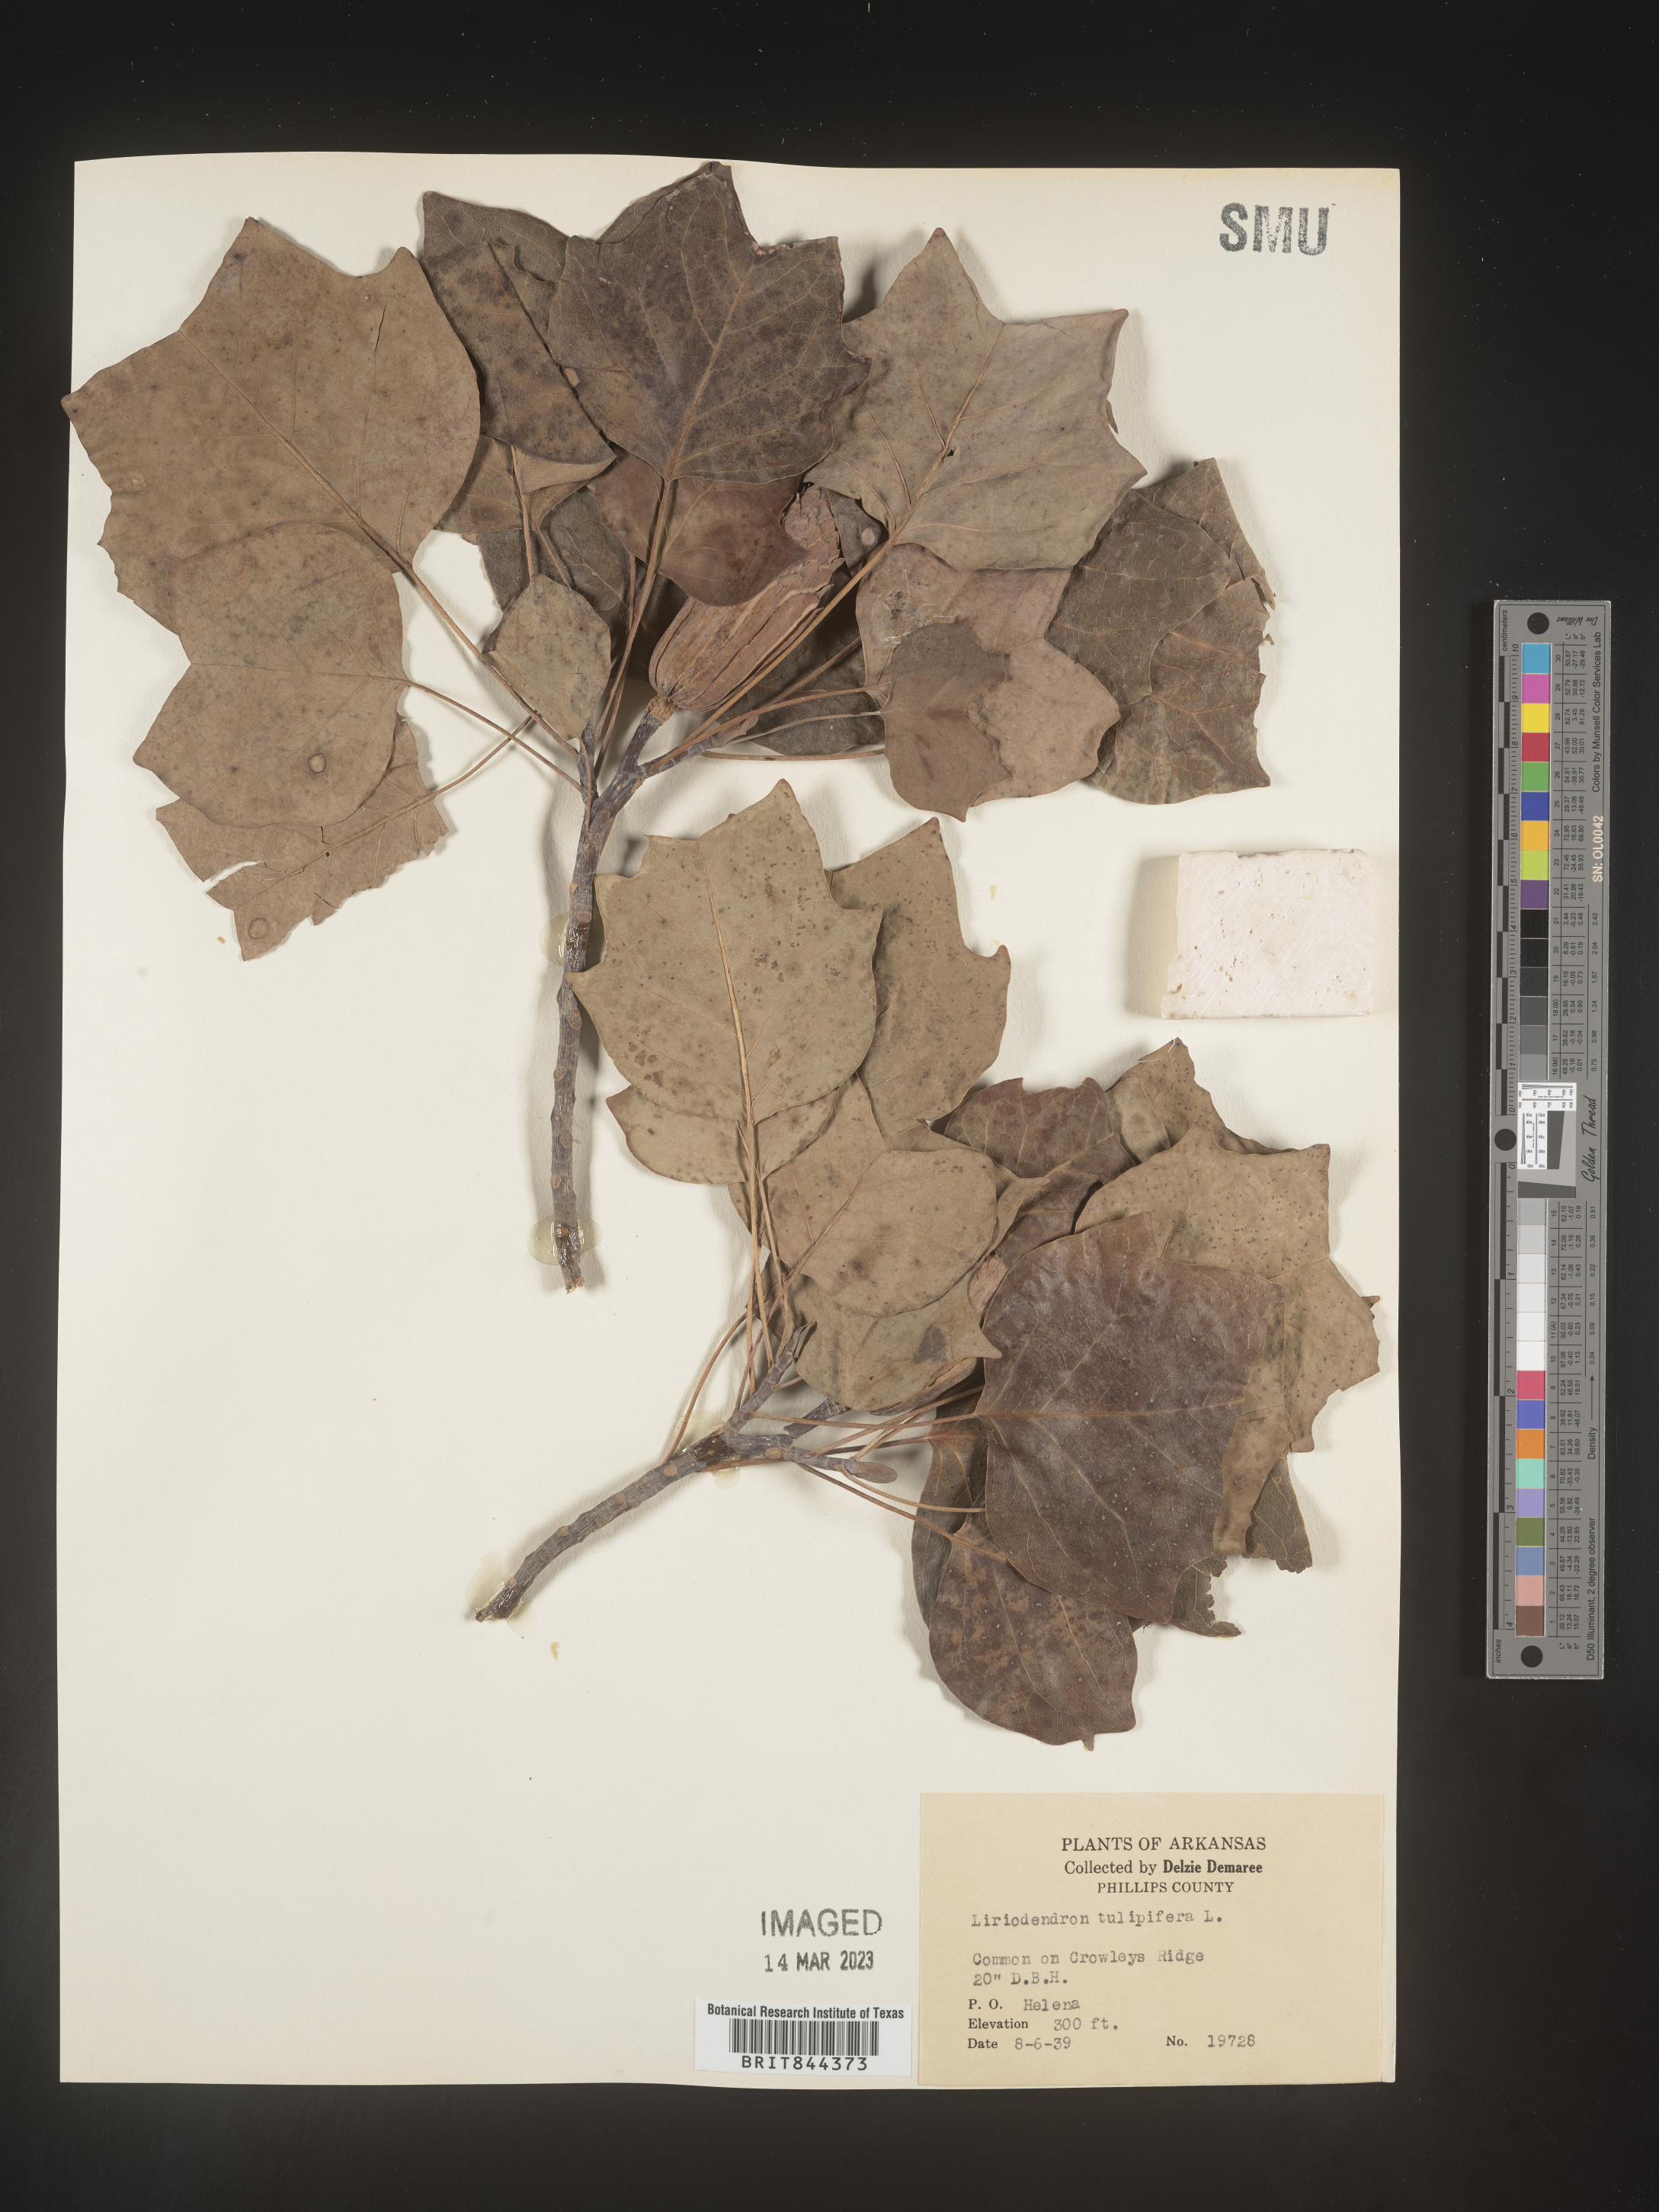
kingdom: Plantae
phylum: Tracheophyta
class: Magnoliopsida
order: Magnoliales
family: Magnoliaceae
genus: Liriodendron
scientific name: Liriodendron tulipifera
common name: Tulip tree
